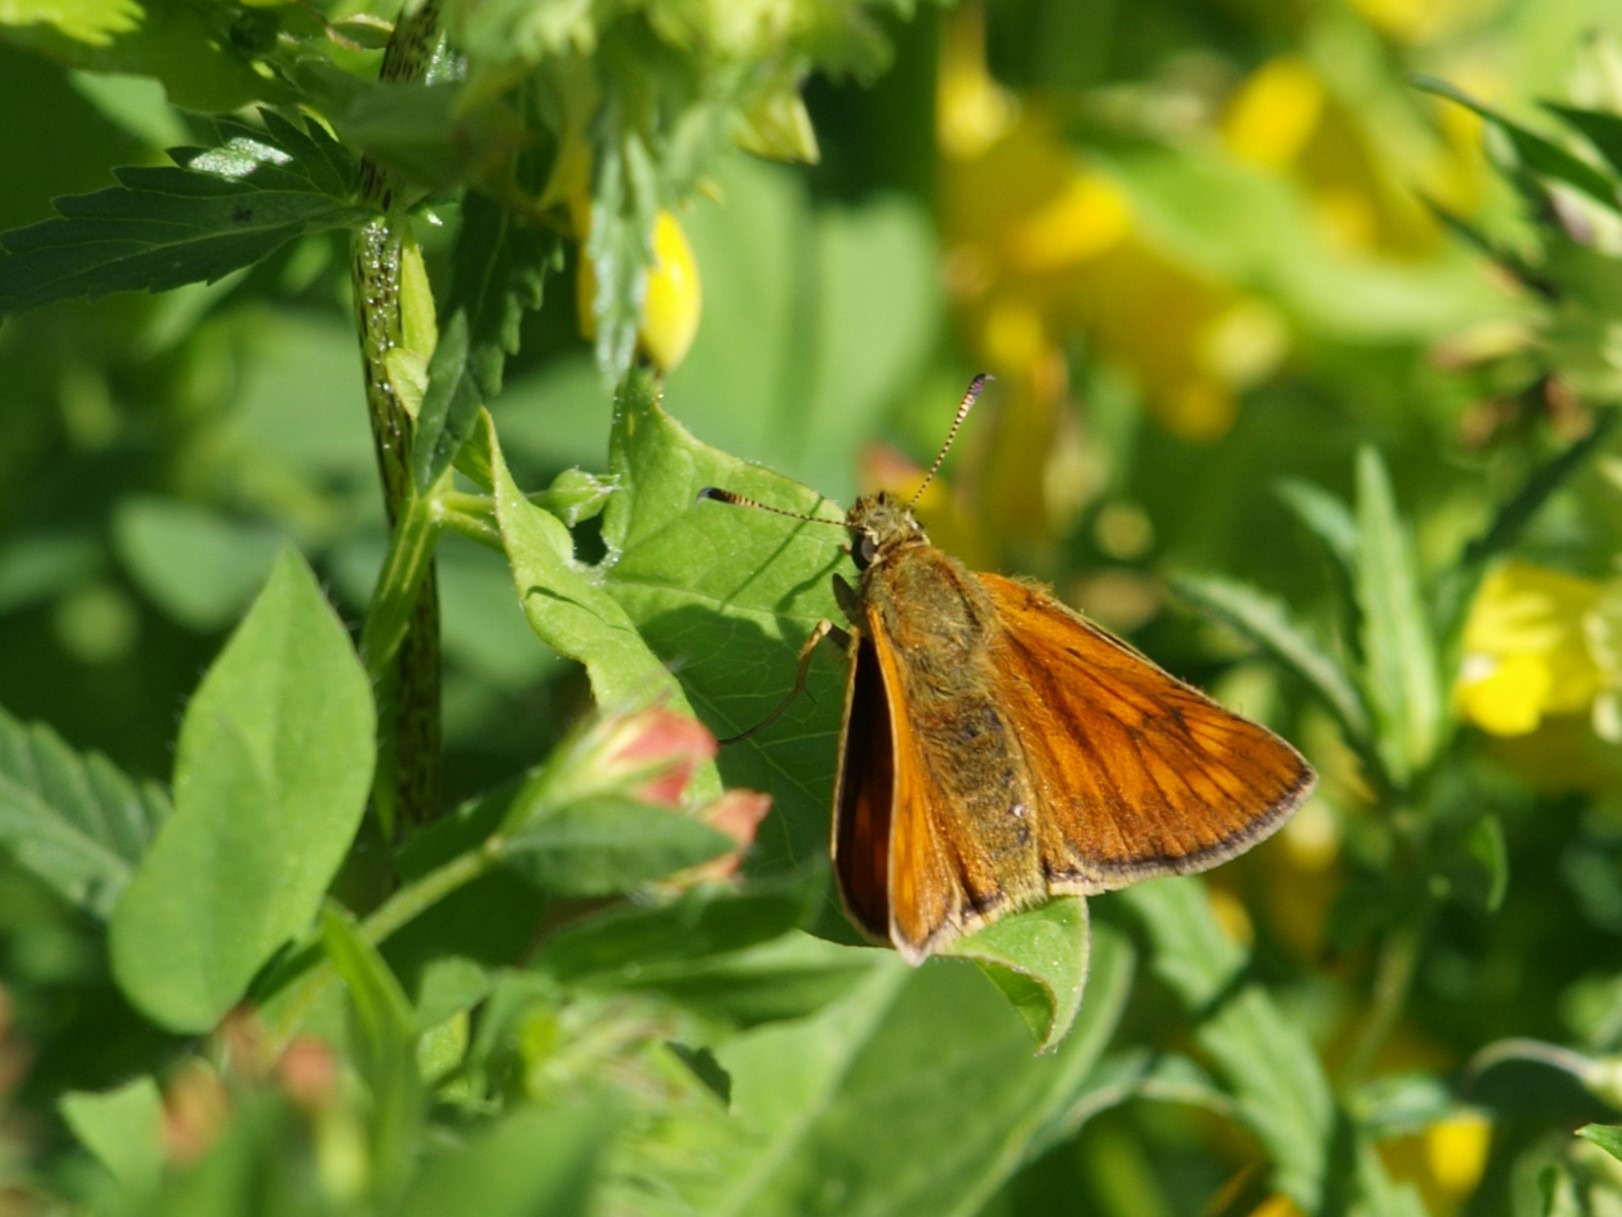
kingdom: Animalia
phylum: Arthropoda
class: Insecta
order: Lepidoptera
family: Hesperiidae
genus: Ochlodes
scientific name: Ochlodes venata
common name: Stor bredpande
